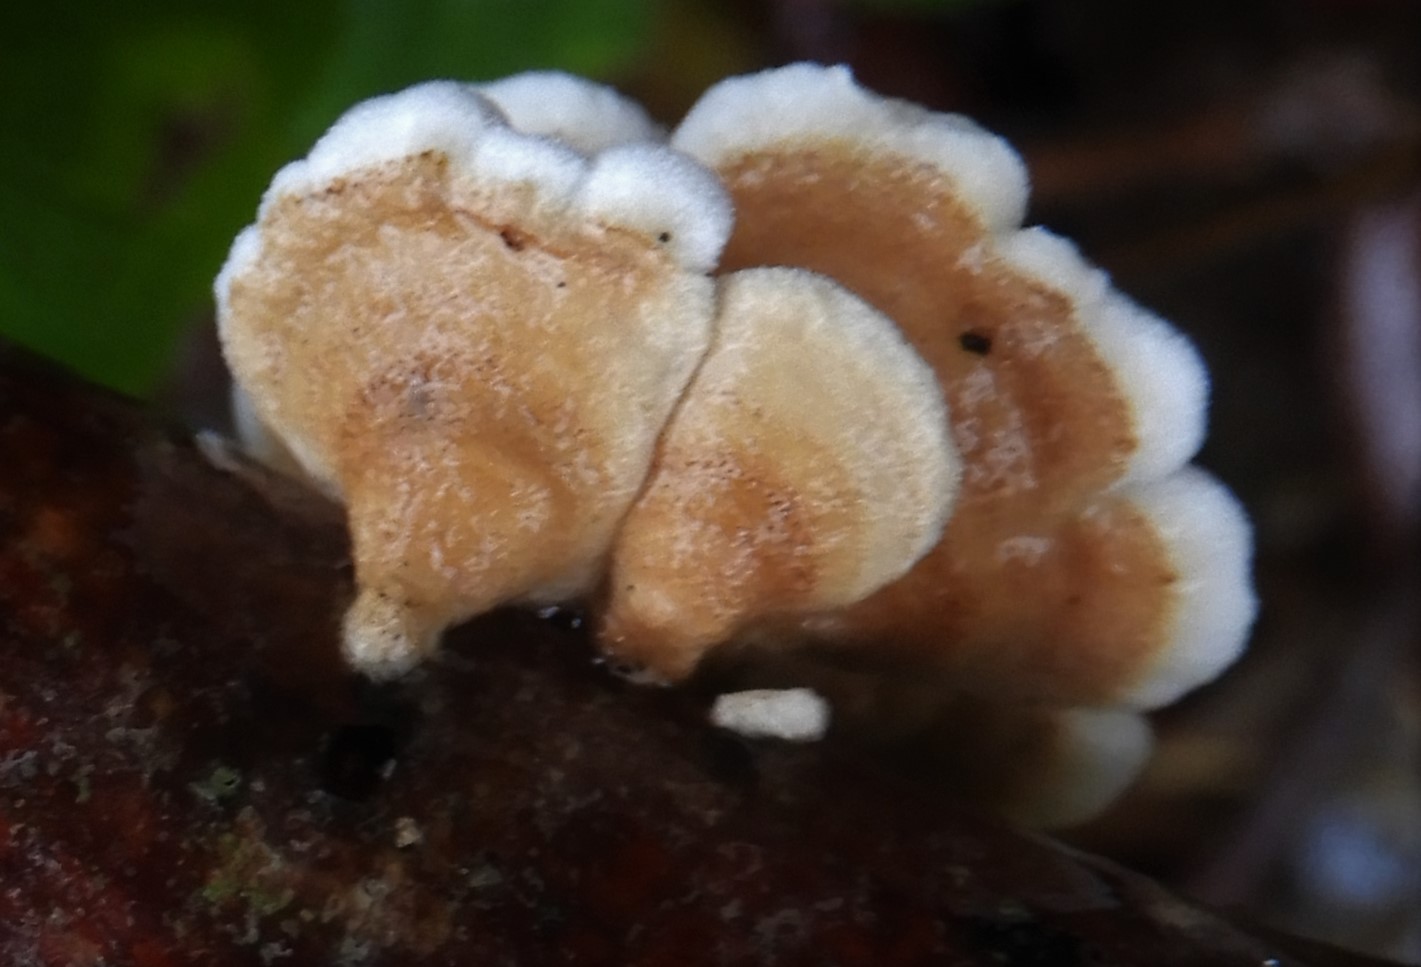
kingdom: Fungi
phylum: Basidiomycota
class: Agaricomycetes
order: Amylocorticiales
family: Amylocorticiaceae
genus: Plicaturopsis
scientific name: Plicaturopsis crispa
